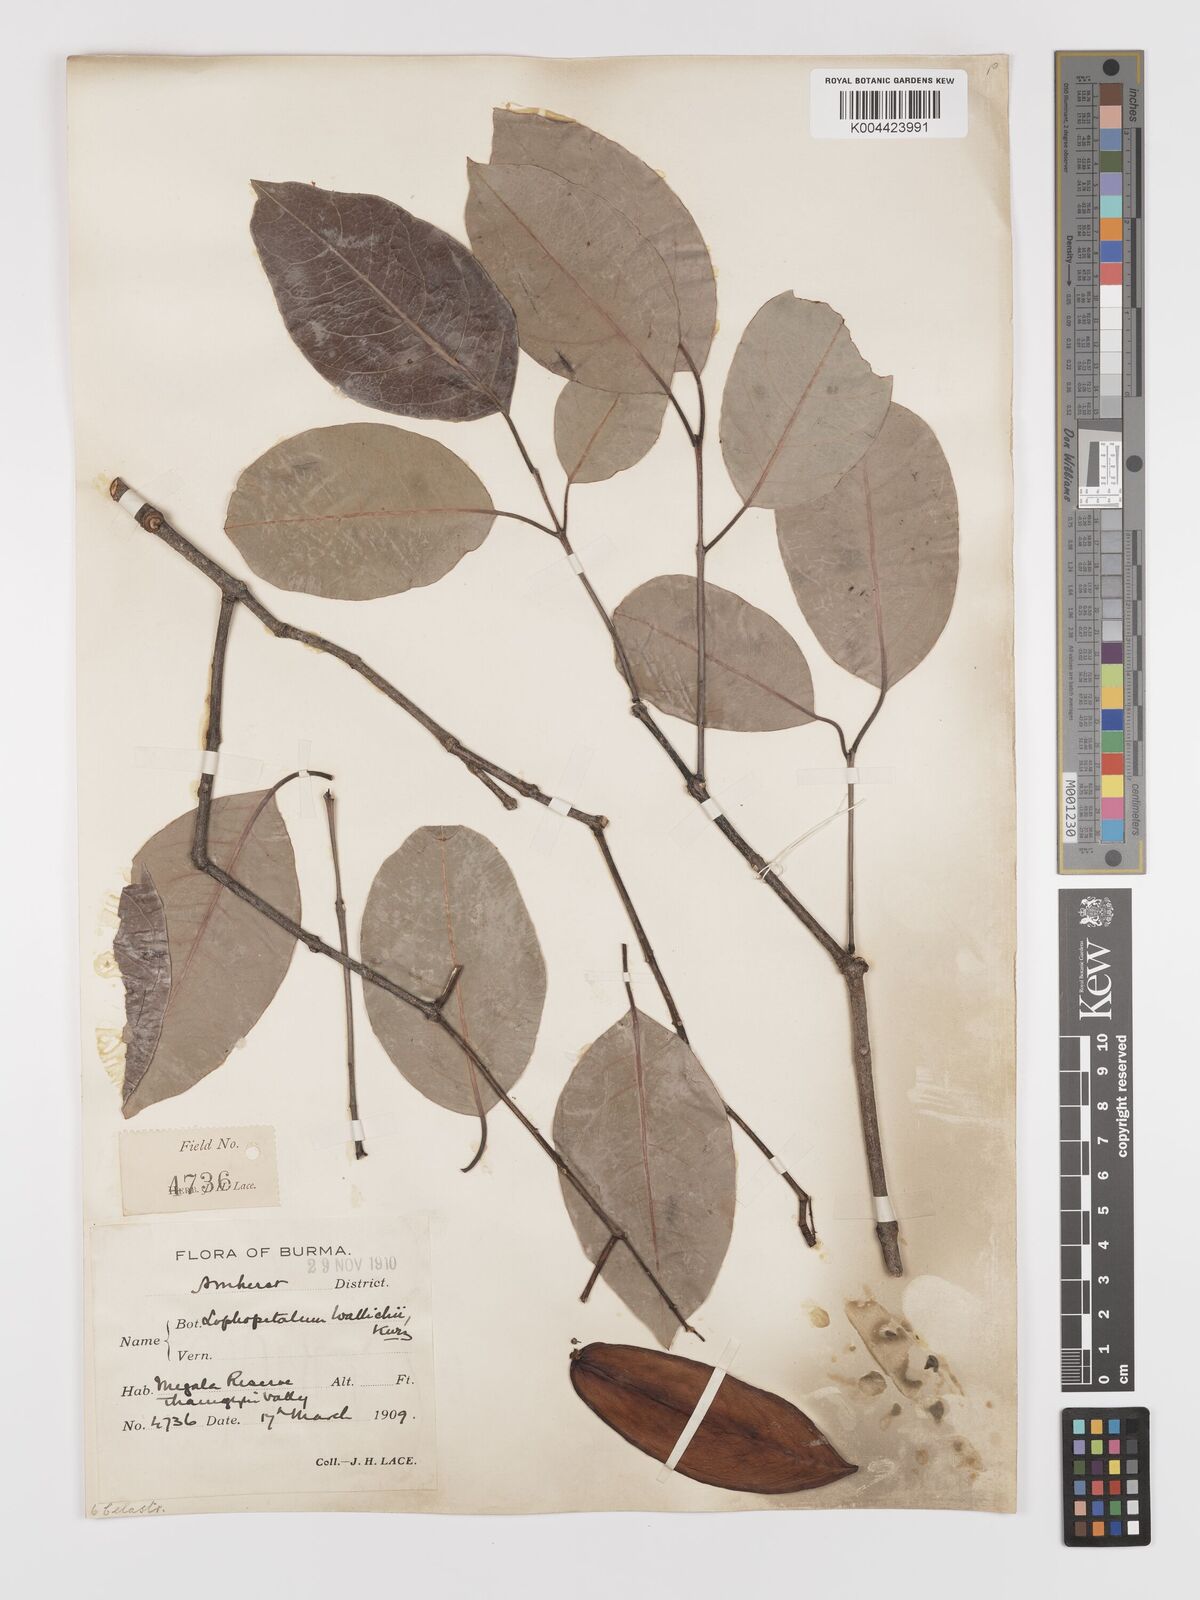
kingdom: Plantae
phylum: Tracheophyta
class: Magnoliopsida
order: Celastrales
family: Celastraceae
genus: Lophopetalum
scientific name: Lophopetalum wallichii
